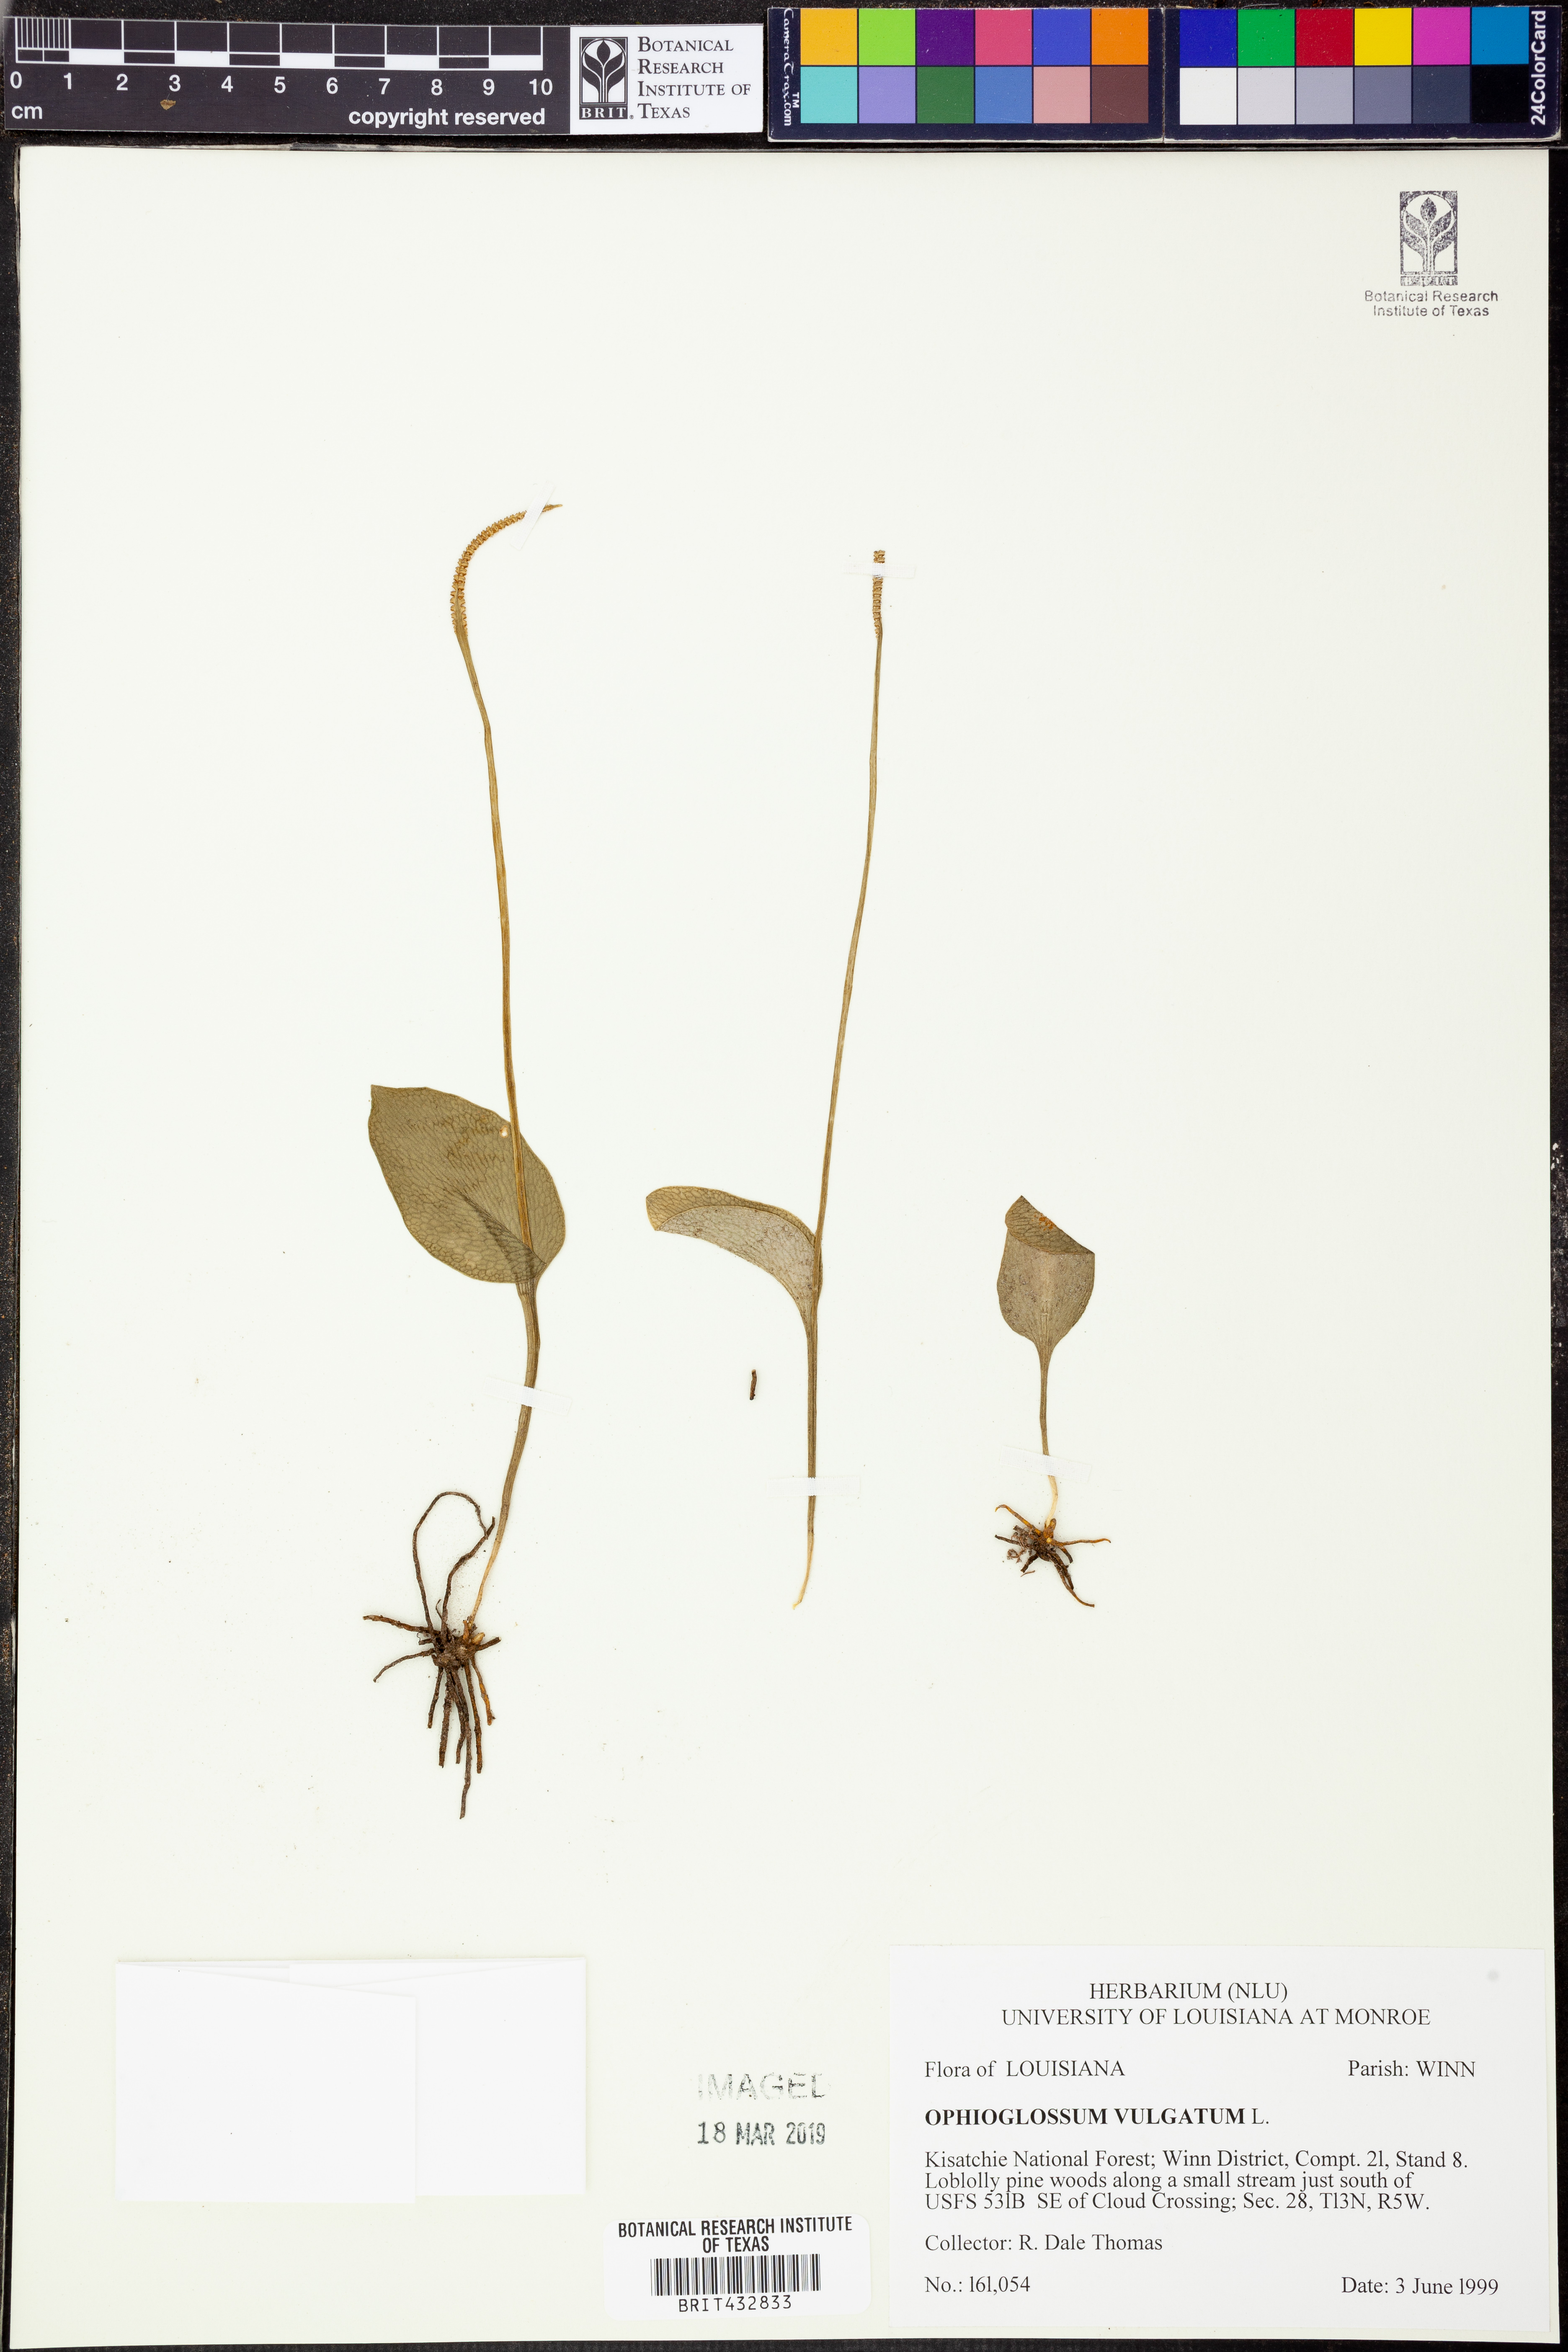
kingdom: Plantae
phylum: Tracheophyta
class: Polypodiopsida
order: Ophioglossales
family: Ophioglossaceae
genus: Ophioglossum
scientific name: Ophioglossum vulgatum
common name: Adder's-tongue
